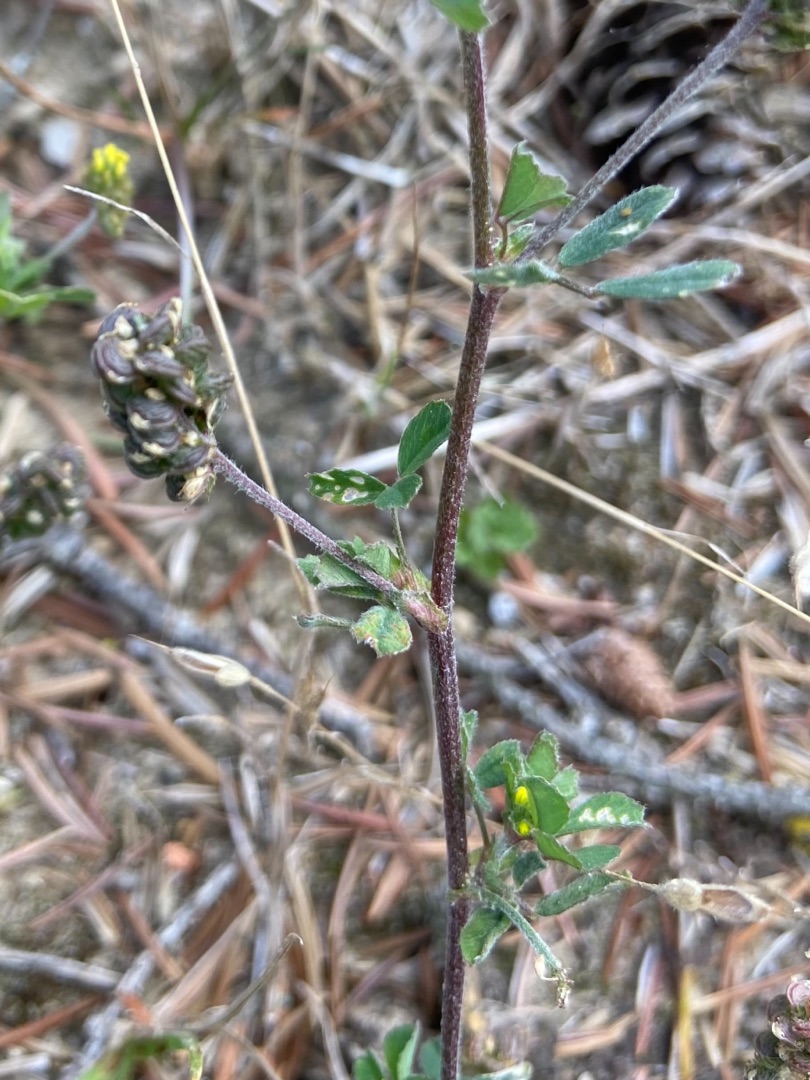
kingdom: Plantae
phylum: Tracheophyta
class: Magnoliopsida
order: Fabales
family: Fabaceae
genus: Medicago
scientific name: Medicago lupulina
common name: Humle-sneglebælg
